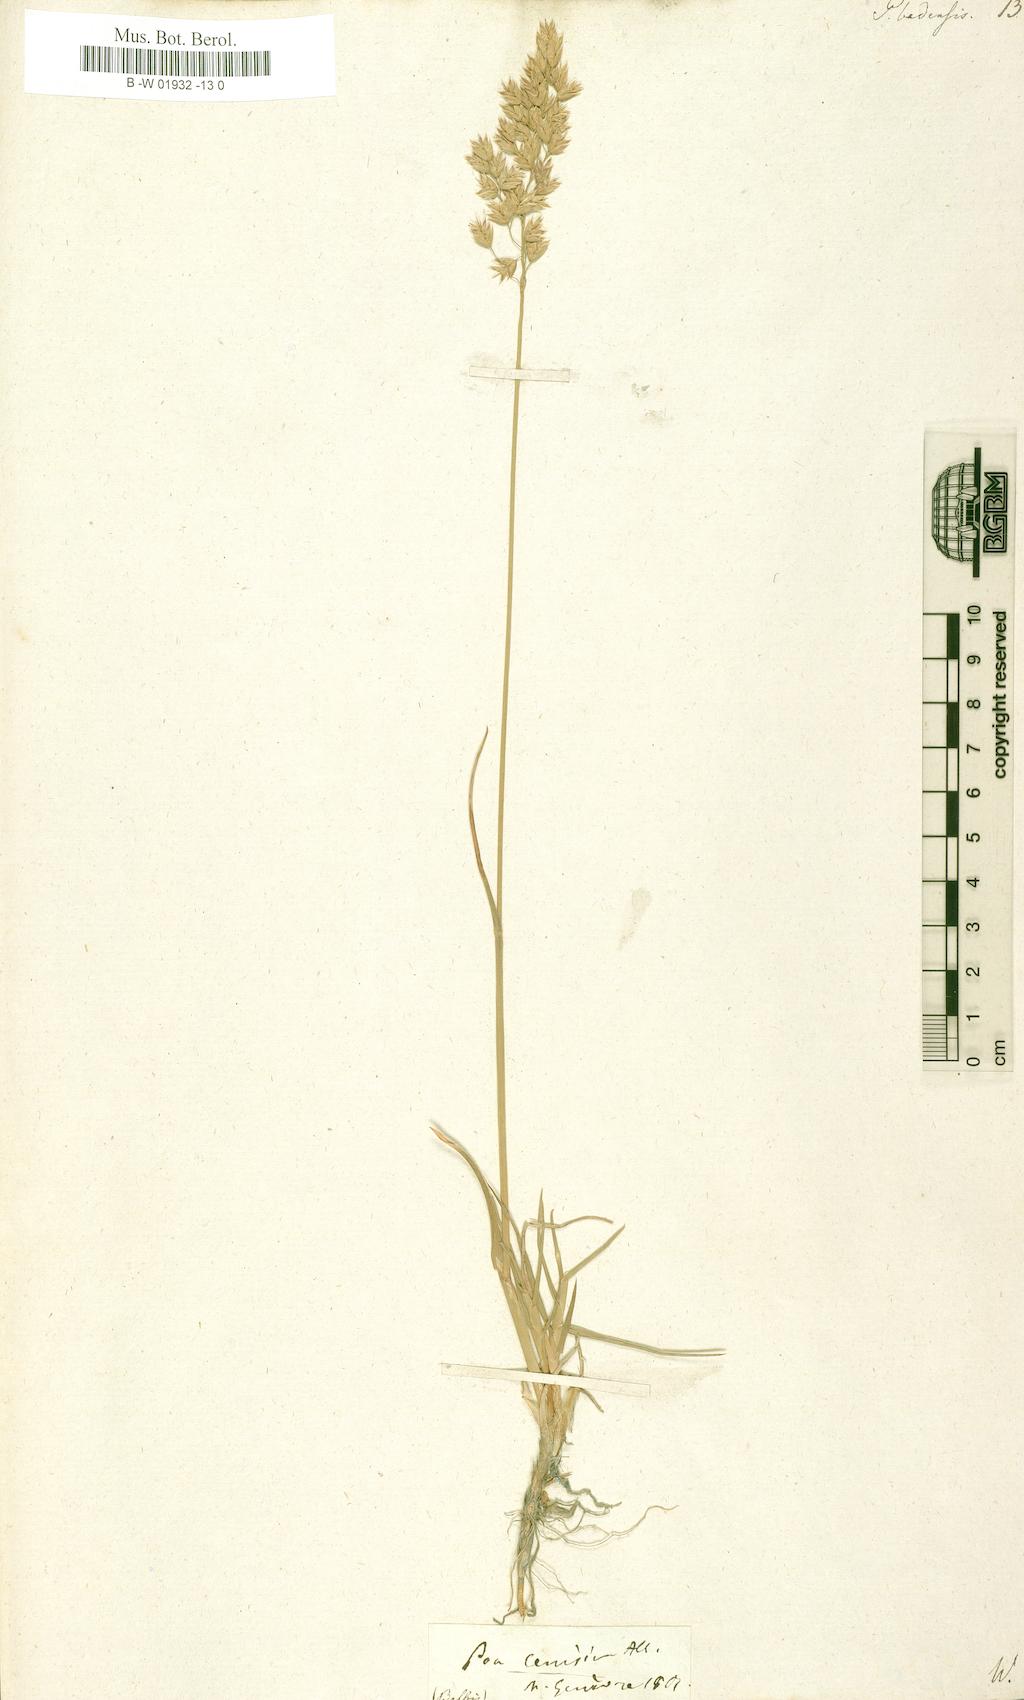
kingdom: Plantae
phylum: Tracheophyta
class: Liliopsida
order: Poales
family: Poaceae
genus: Poa
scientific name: Poa badensis
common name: Baden's bluegrass
